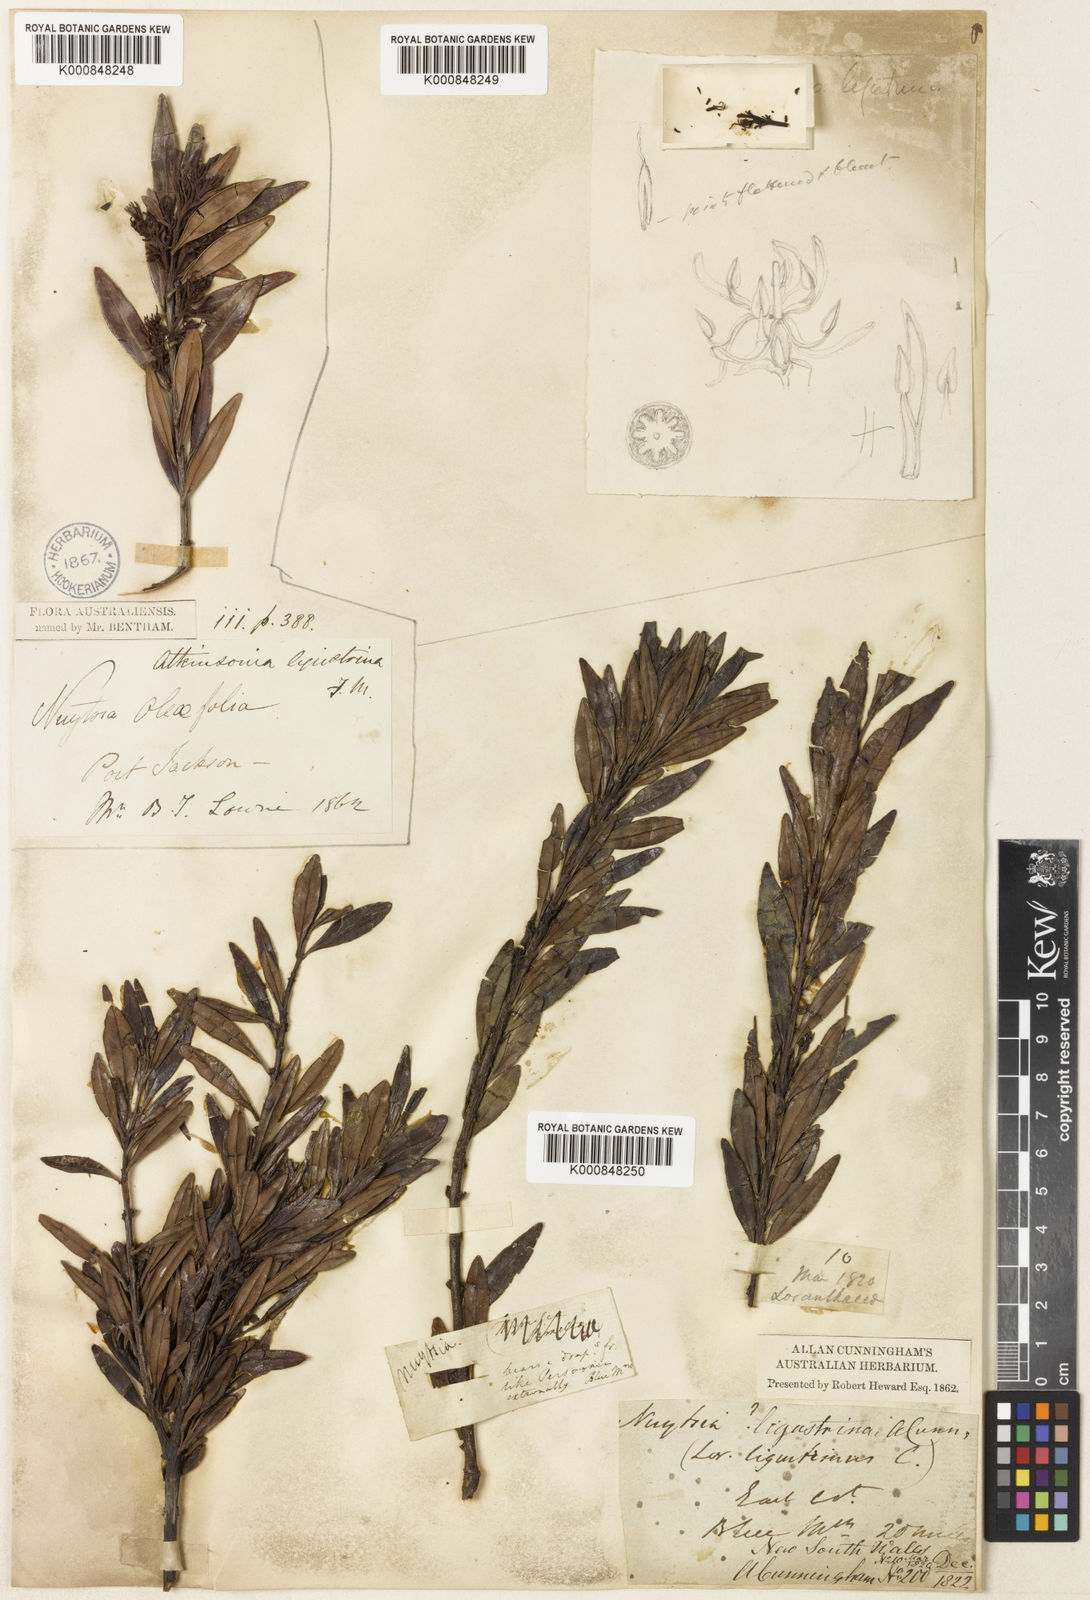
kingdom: Plantae
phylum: Tracheophyta
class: Magnoliopsida
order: Santalales
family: Loranthaceae
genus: Atkinsonia
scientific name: Atkinsonia ligustrina
